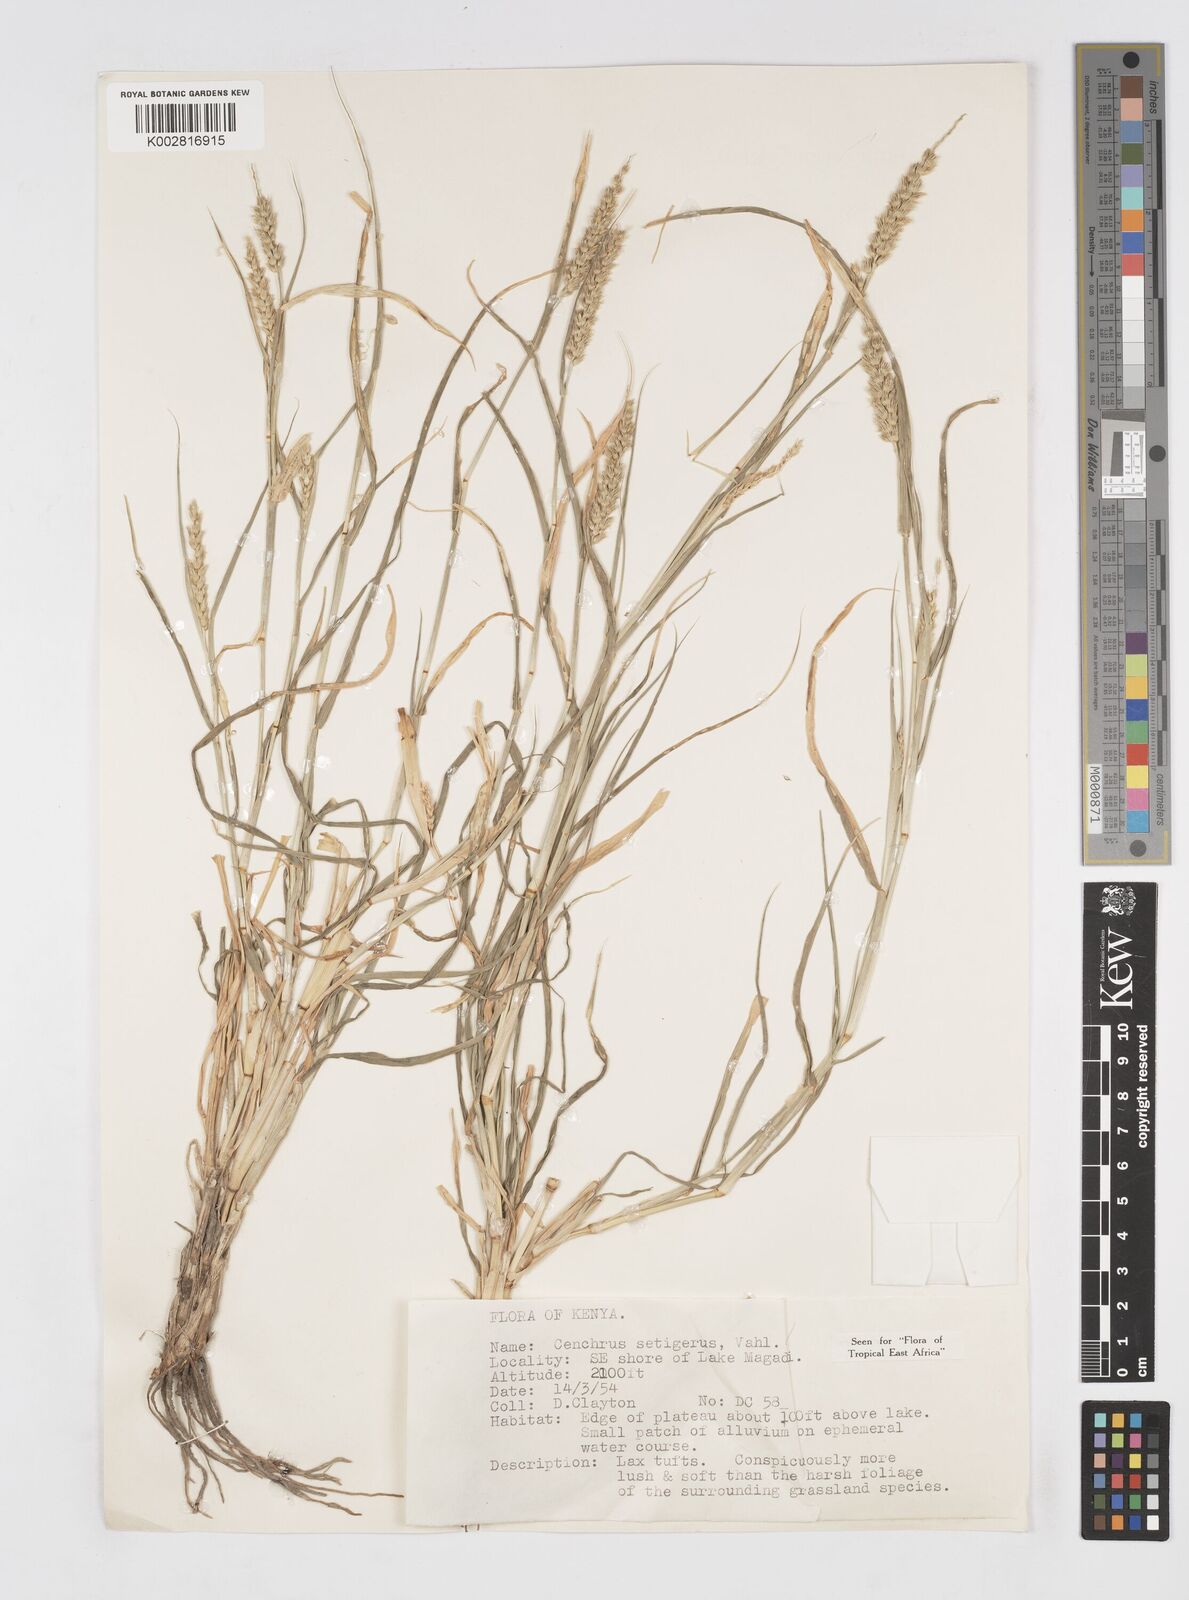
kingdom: Plantae
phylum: Tracheophyta
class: Liliopsida
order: Poales
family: Poaceae
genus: Cenchrus
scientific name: Cenchrus setigerus
